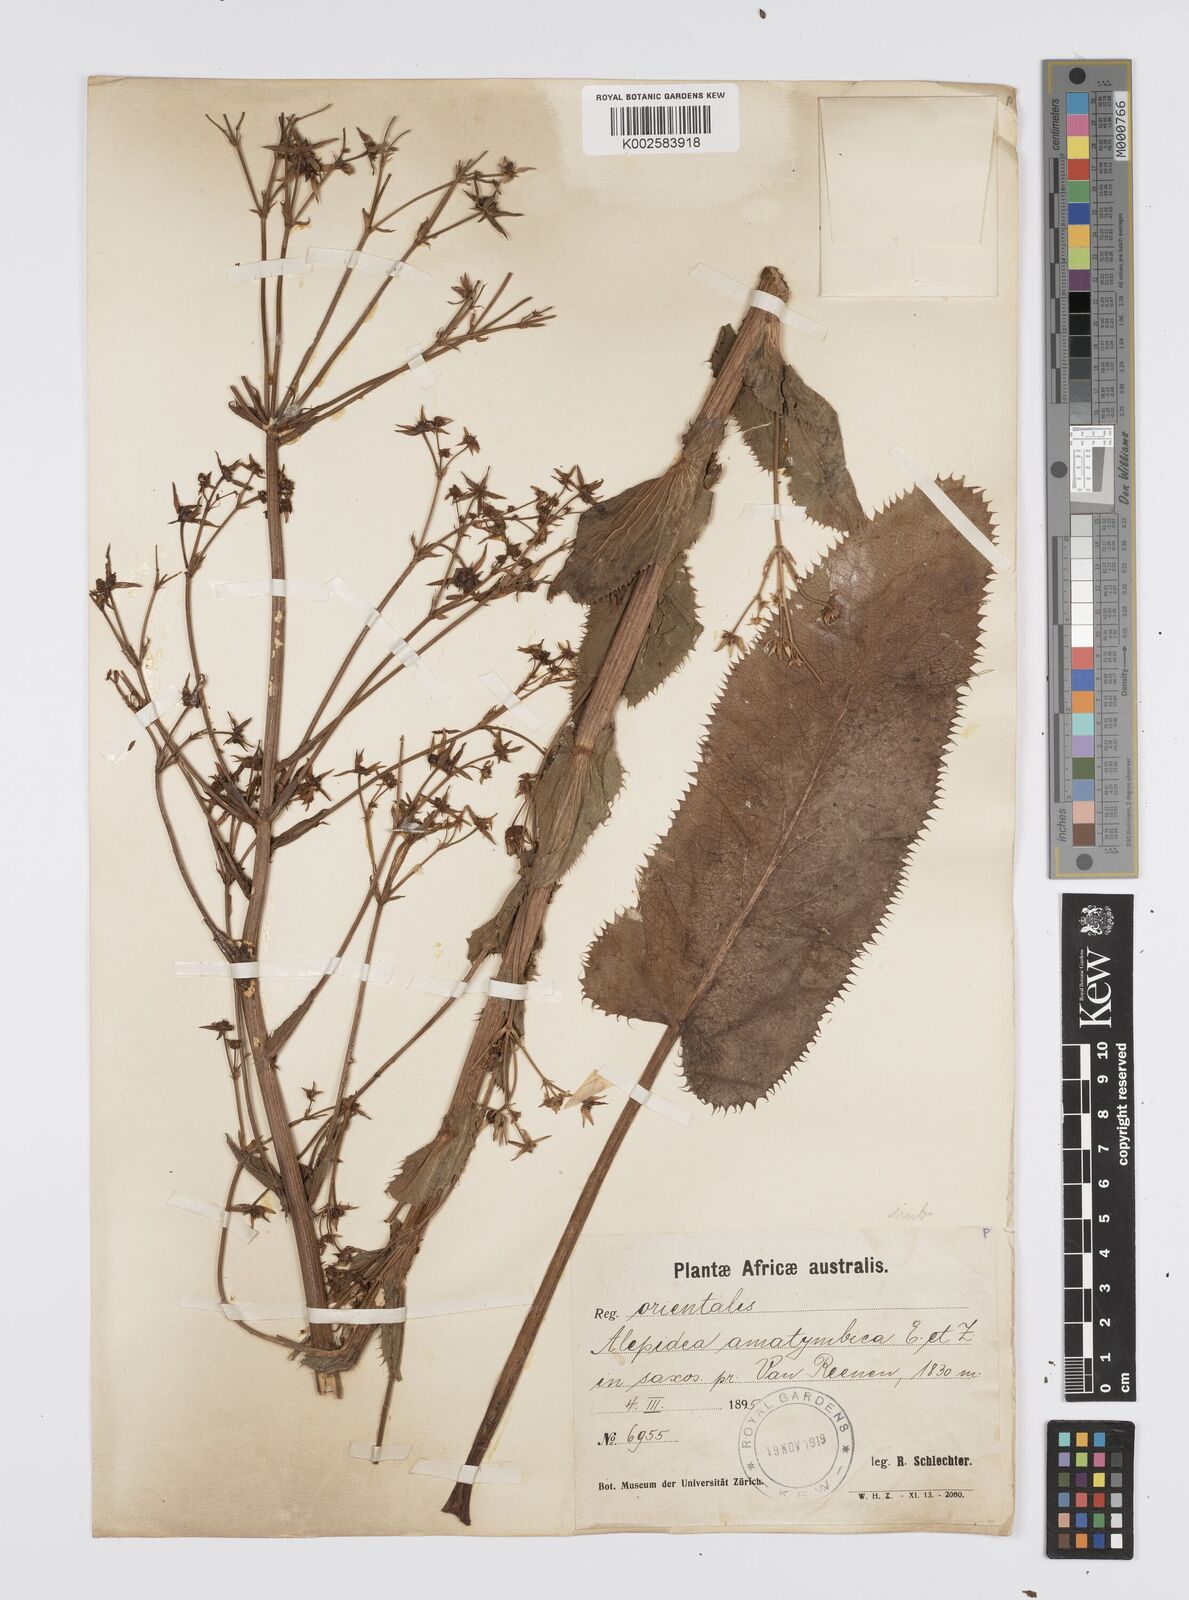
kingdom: Plantae
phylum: Tracheophyta
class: Magnoliopsida
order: Apiales
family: Apiaceae
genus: Alepidea
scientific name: Alepidea amatymbica
